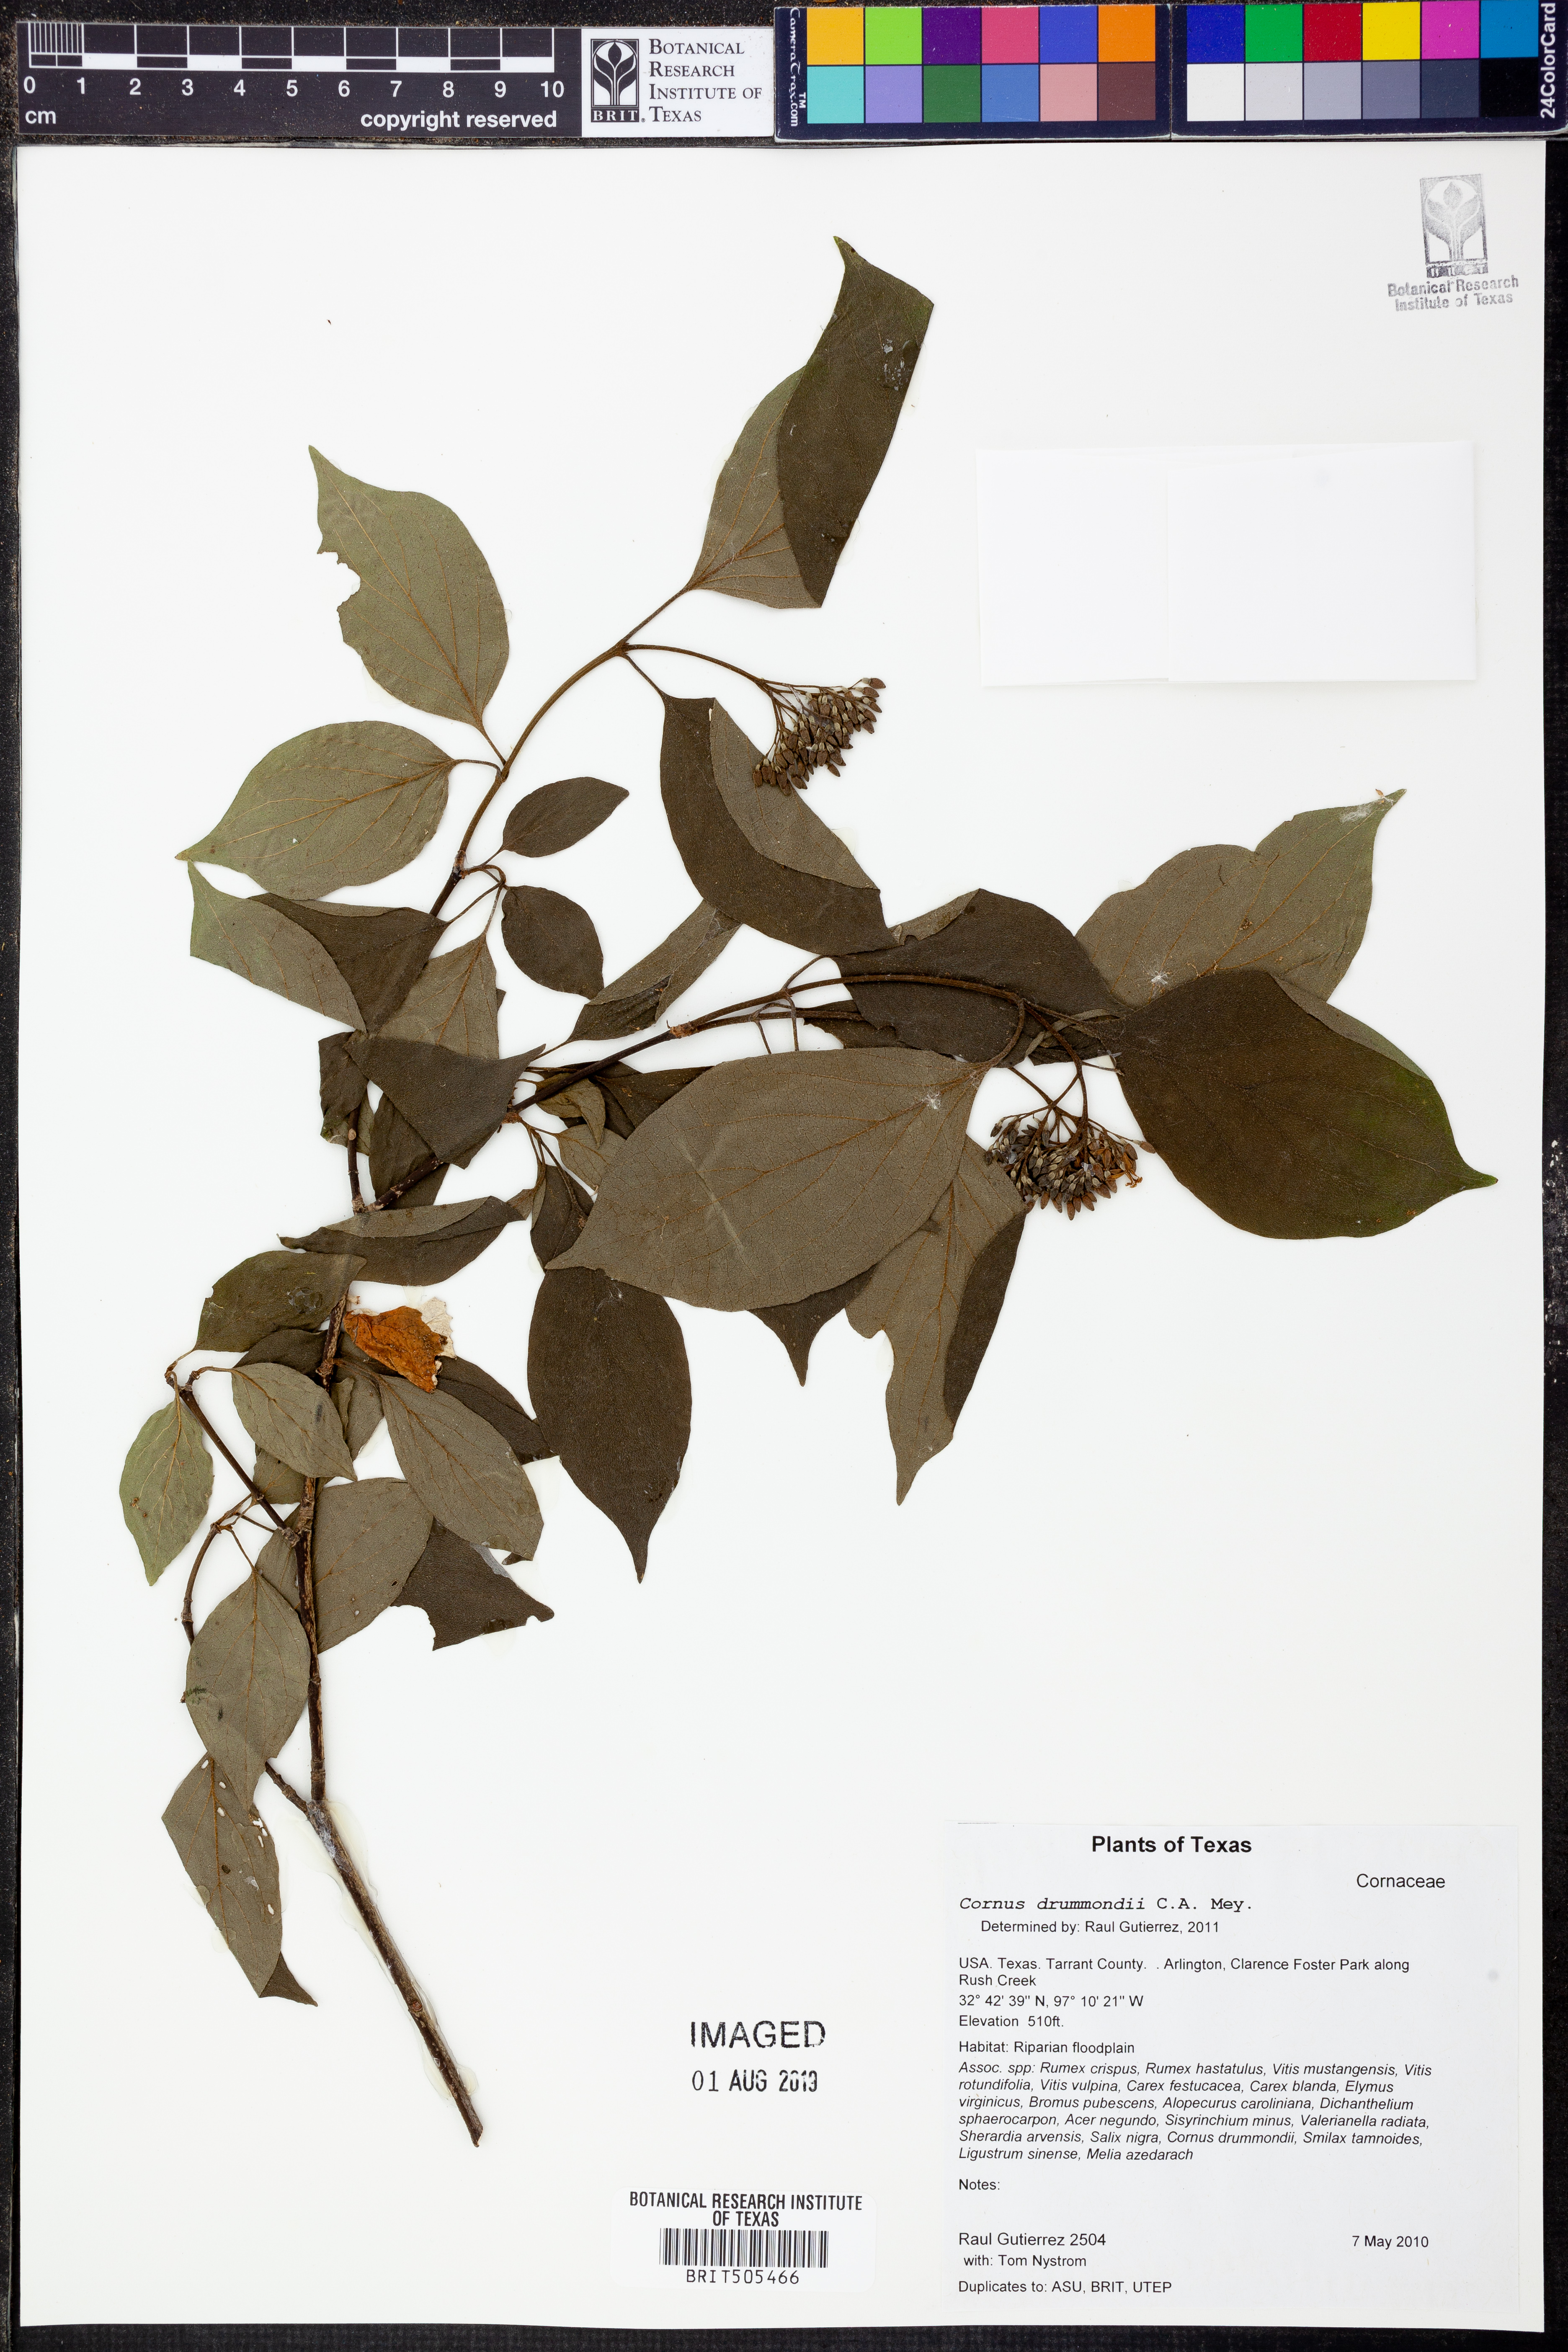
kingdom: Plantae
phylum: Tracheophyta
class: Magnoliopsida
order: Cornales
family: Cornaceae
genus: Cornus
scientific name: Cornus drummondii
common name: Rough-leaf dogwood
